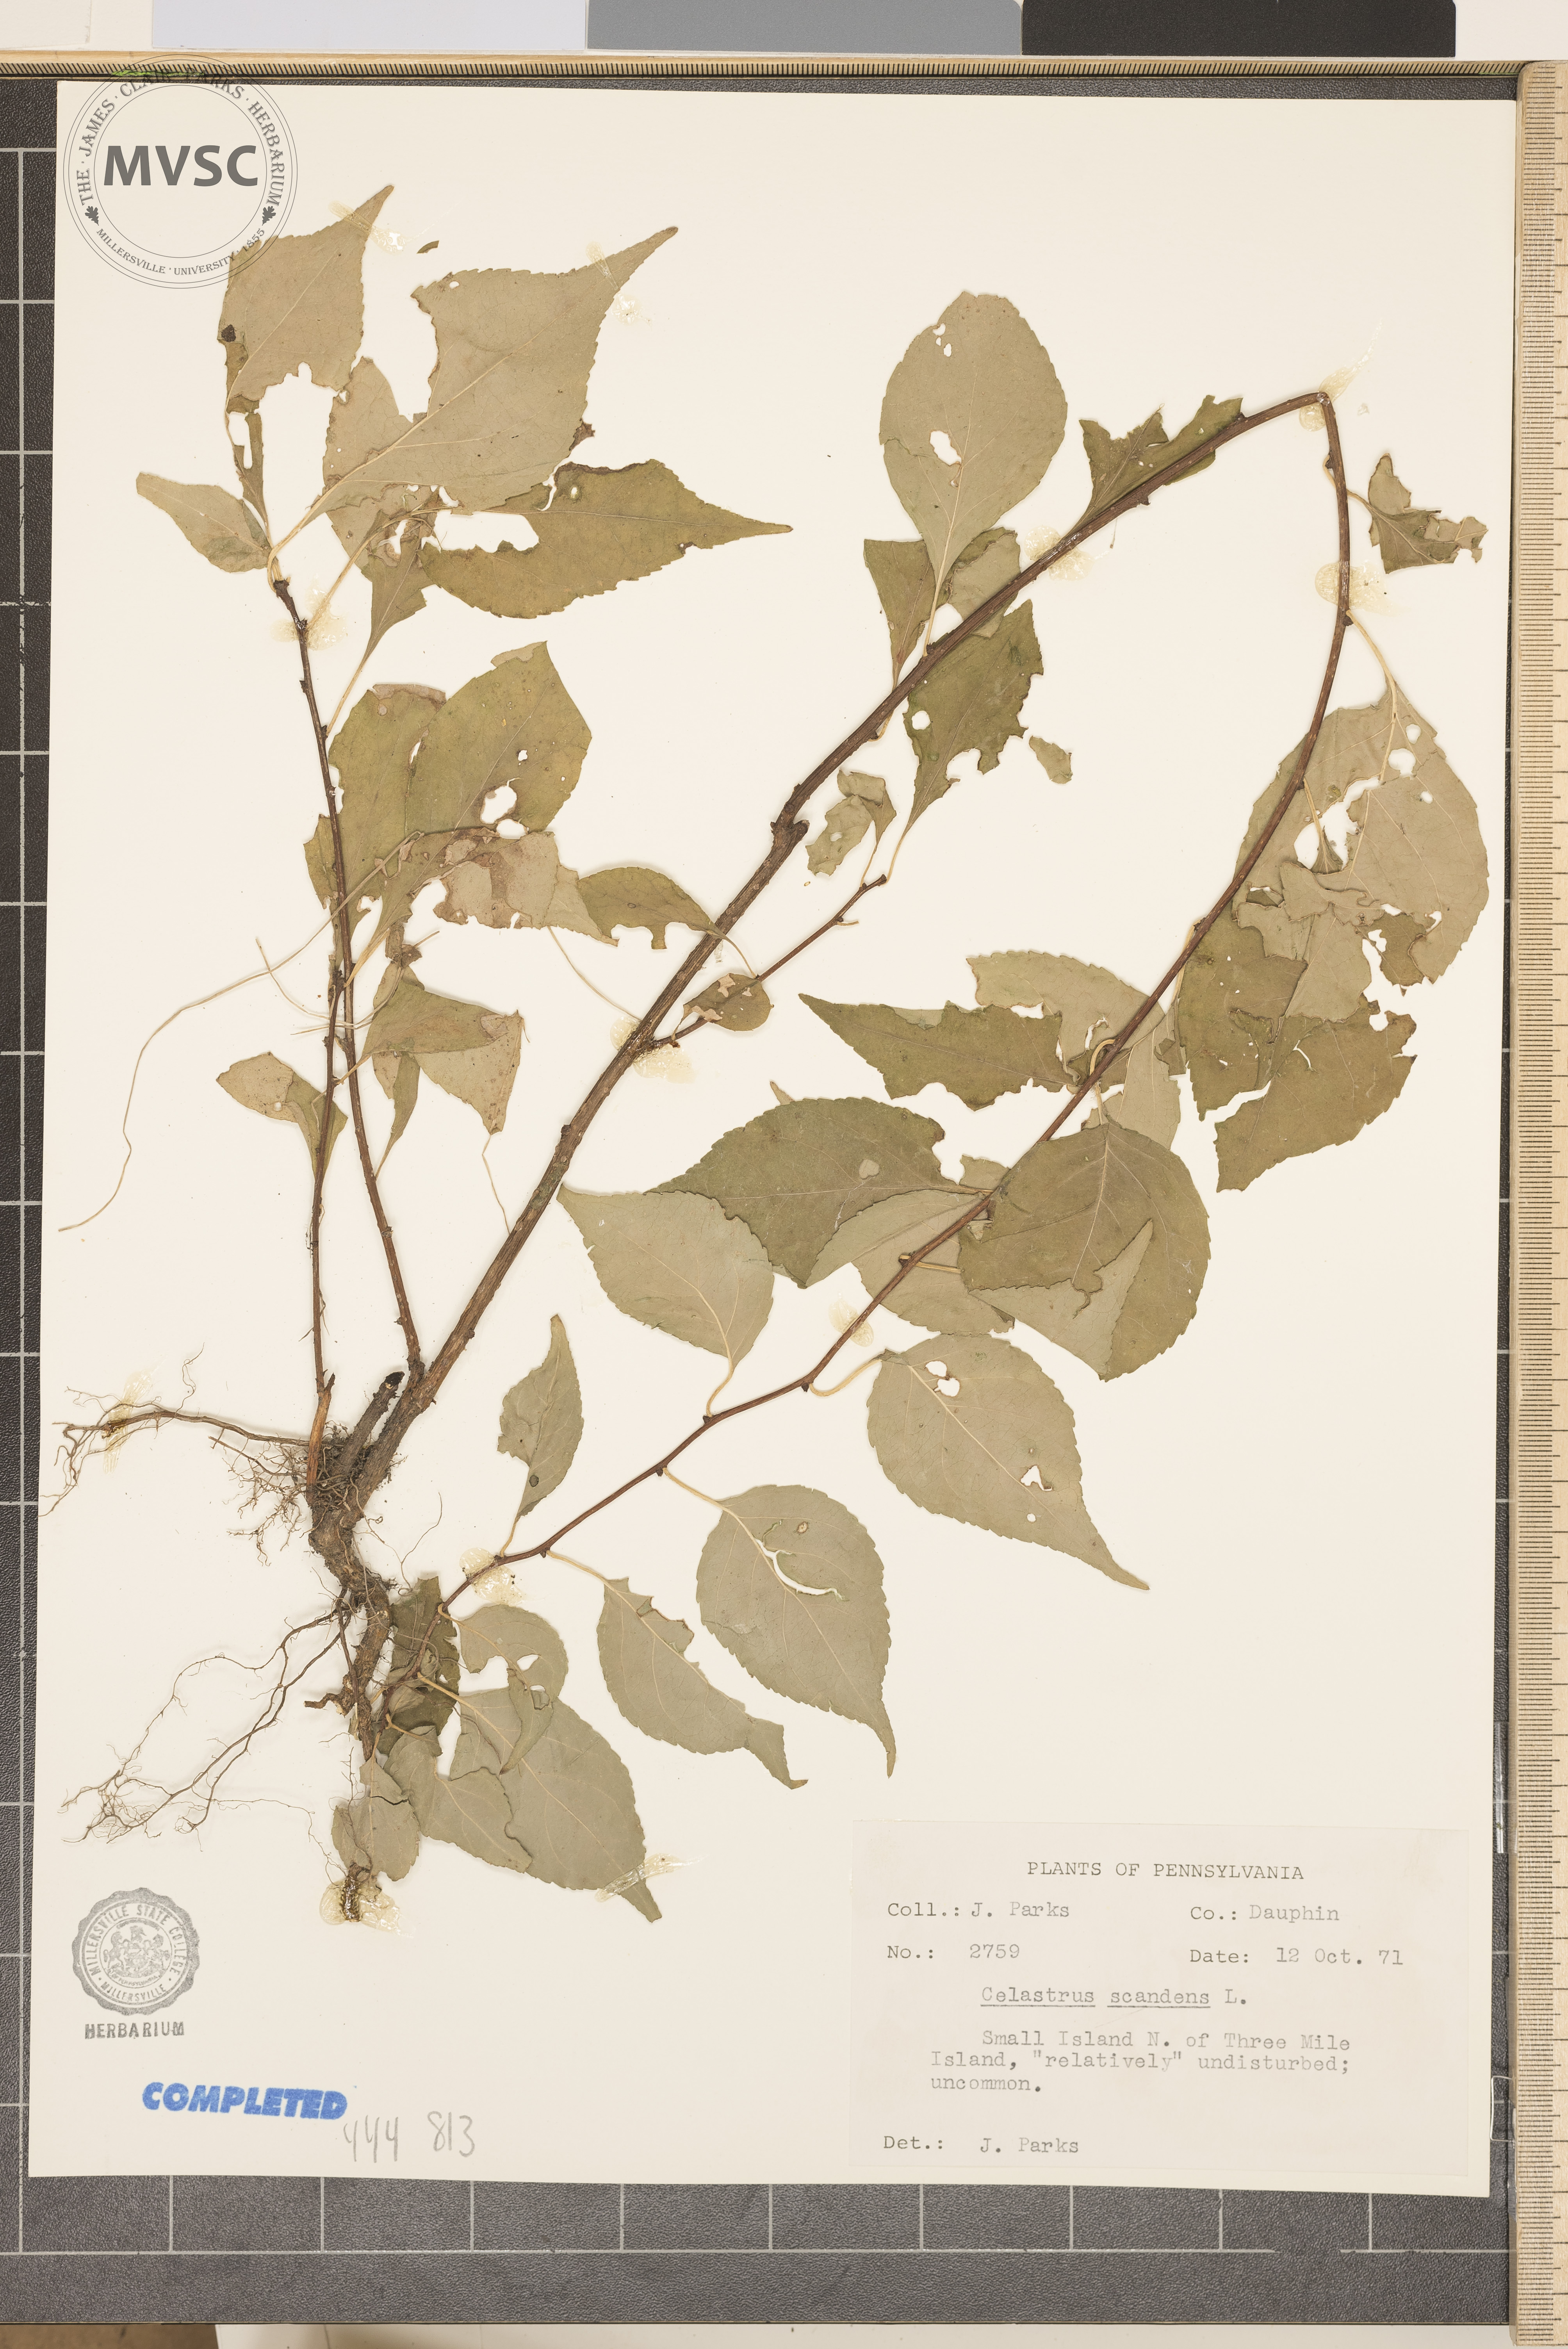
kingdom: Plantae
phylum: Tracheophyta
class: Magnoliopsida
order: Celastrales
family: Celastraceae
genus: Celastrus
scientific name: Celastrus scandens
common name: American bittersweet
